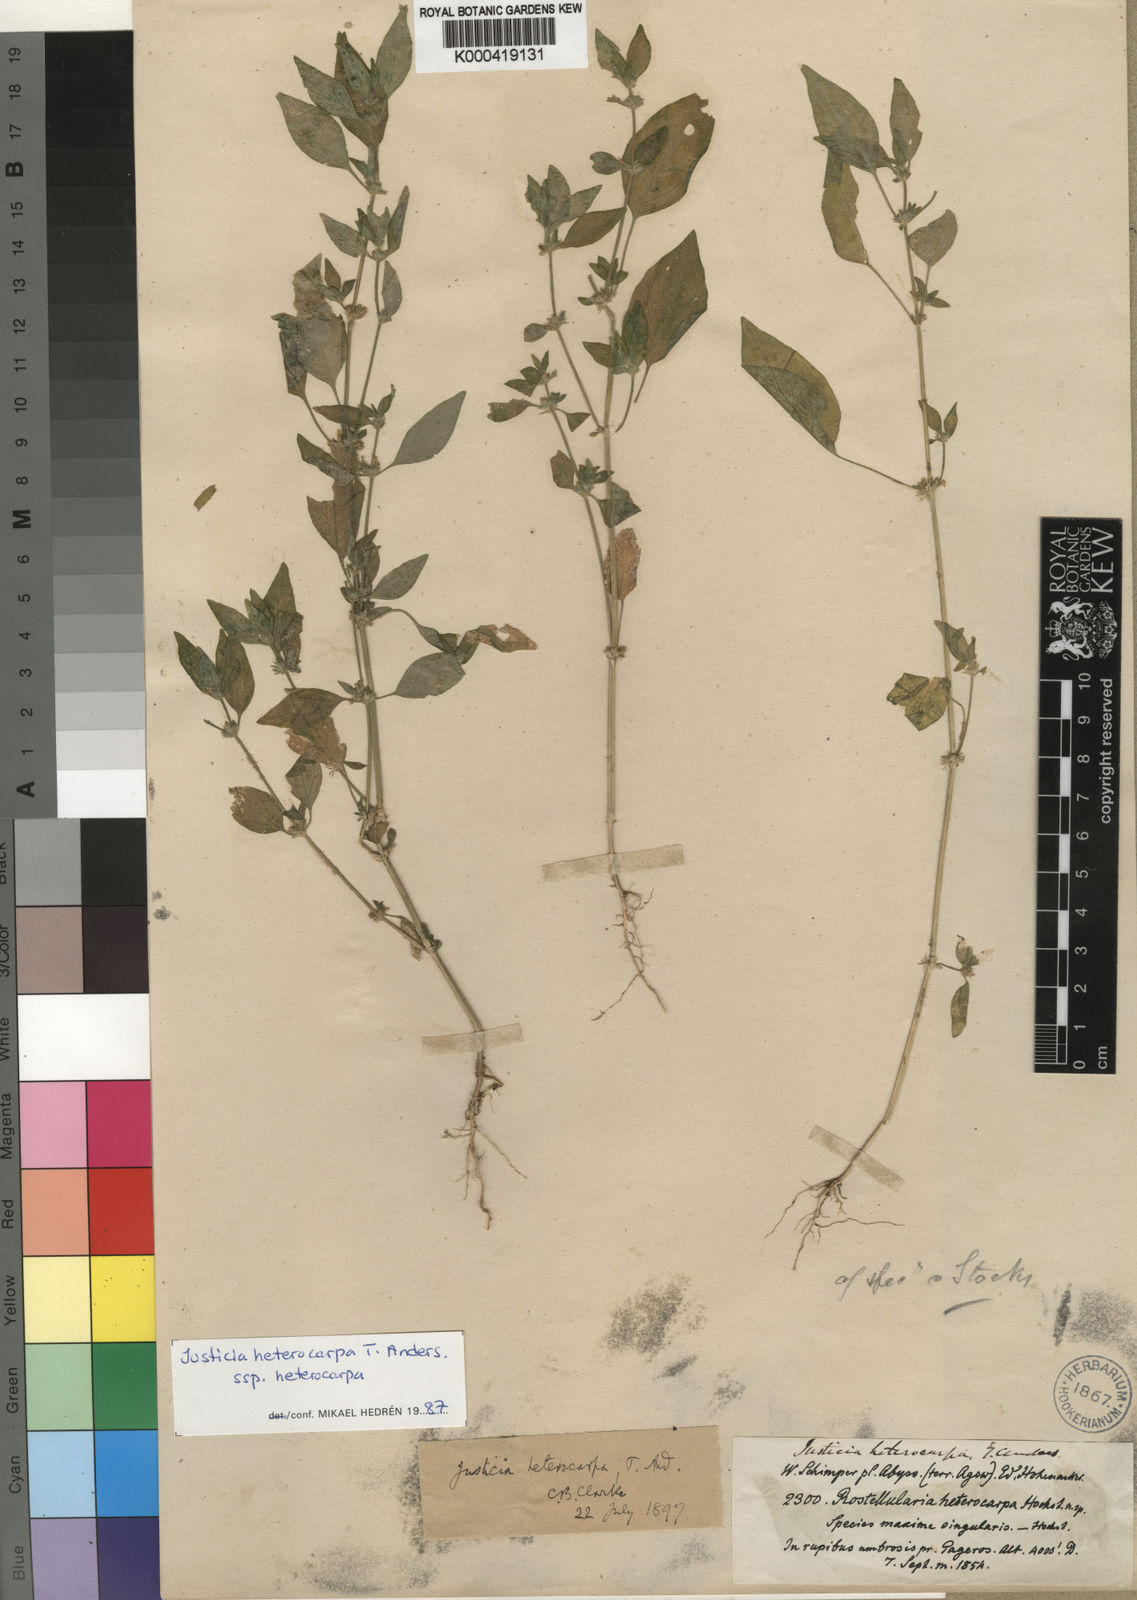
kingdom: Plantae
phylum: Tracheophyta
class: Magnoliopsida
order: Lamiales
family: Acanthaceae
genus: Justicia
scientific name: Justicia heterocarpa
